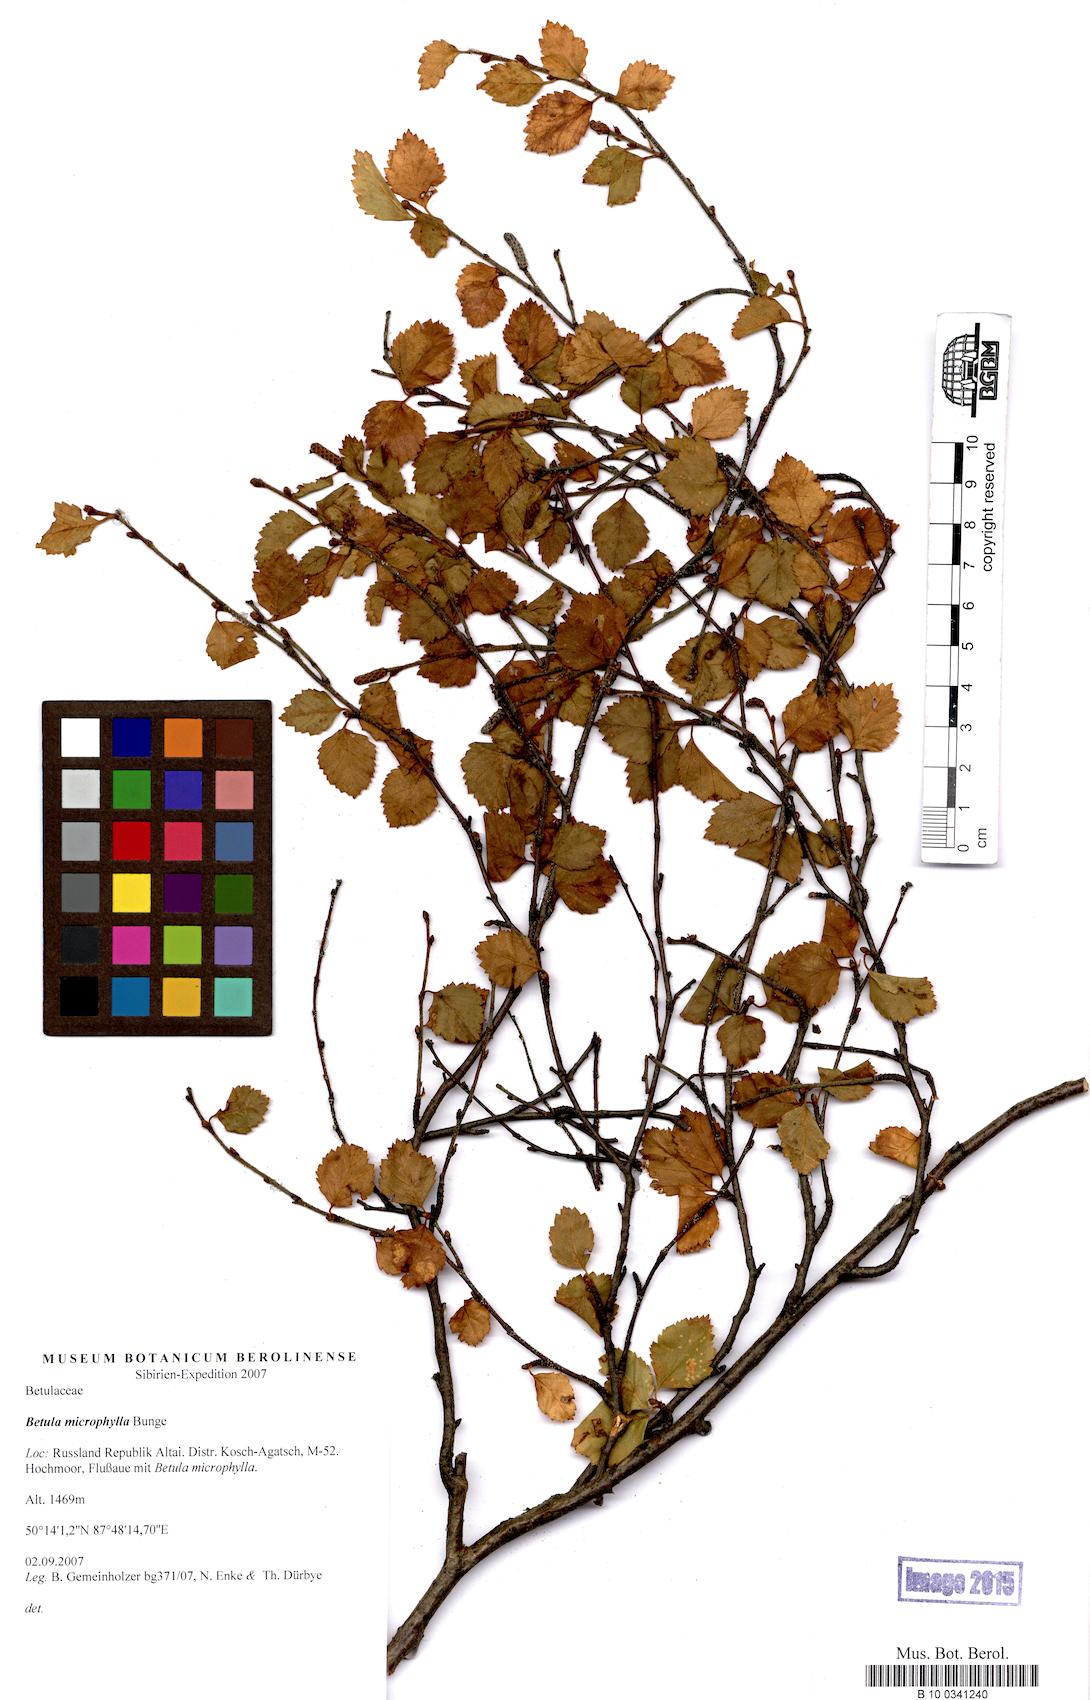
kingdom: Plantae
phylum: Tracheophyta
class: Magnoliopsida
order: Fagales
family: Betulaceae
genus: Betula
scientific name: Betula microphylla
